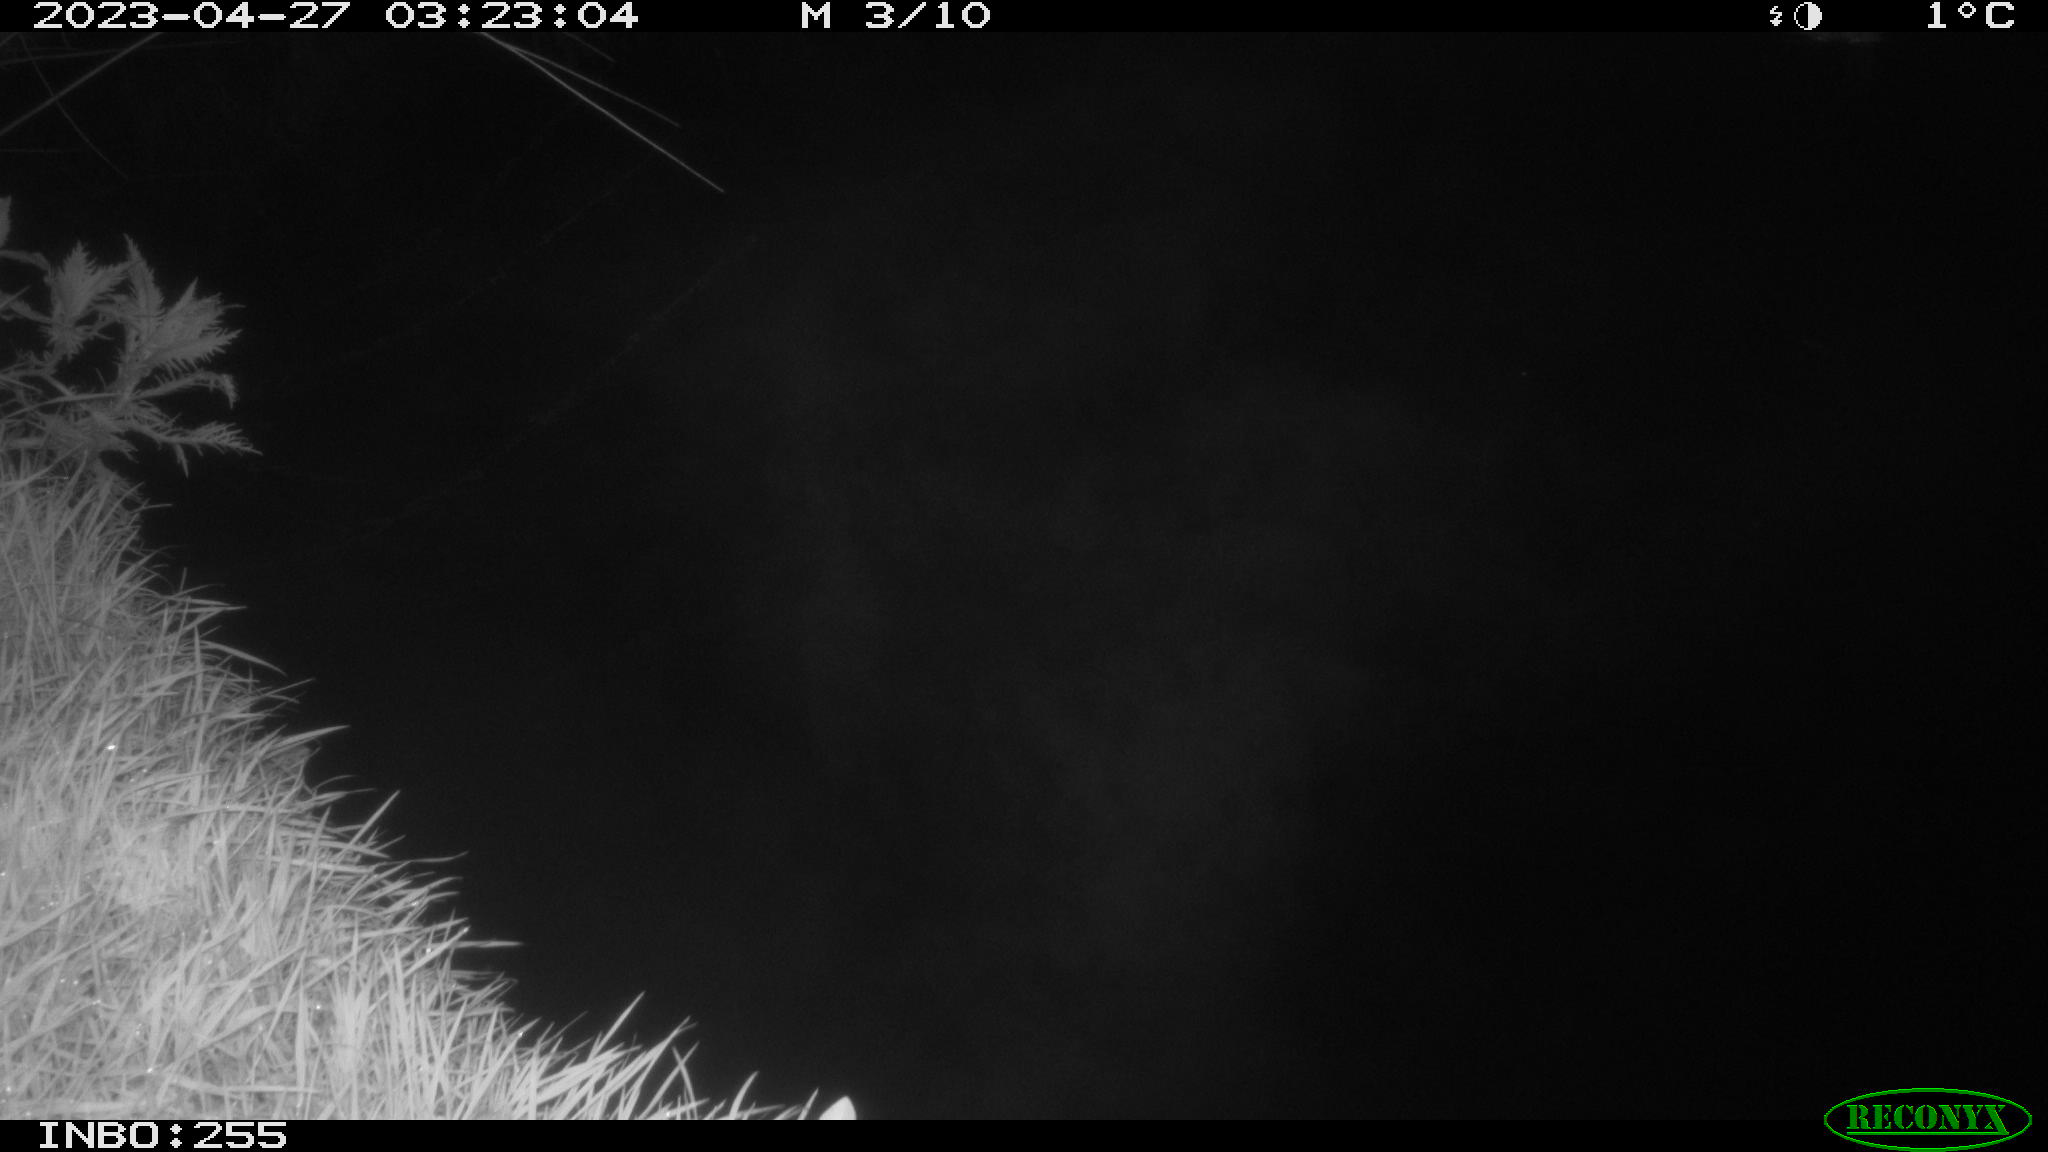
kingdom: Animalia
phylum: Chordata
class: Aves
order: Gruiformes
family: Rallidae
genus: Fulica
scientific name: Fulica atra
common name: Eurasian coot
